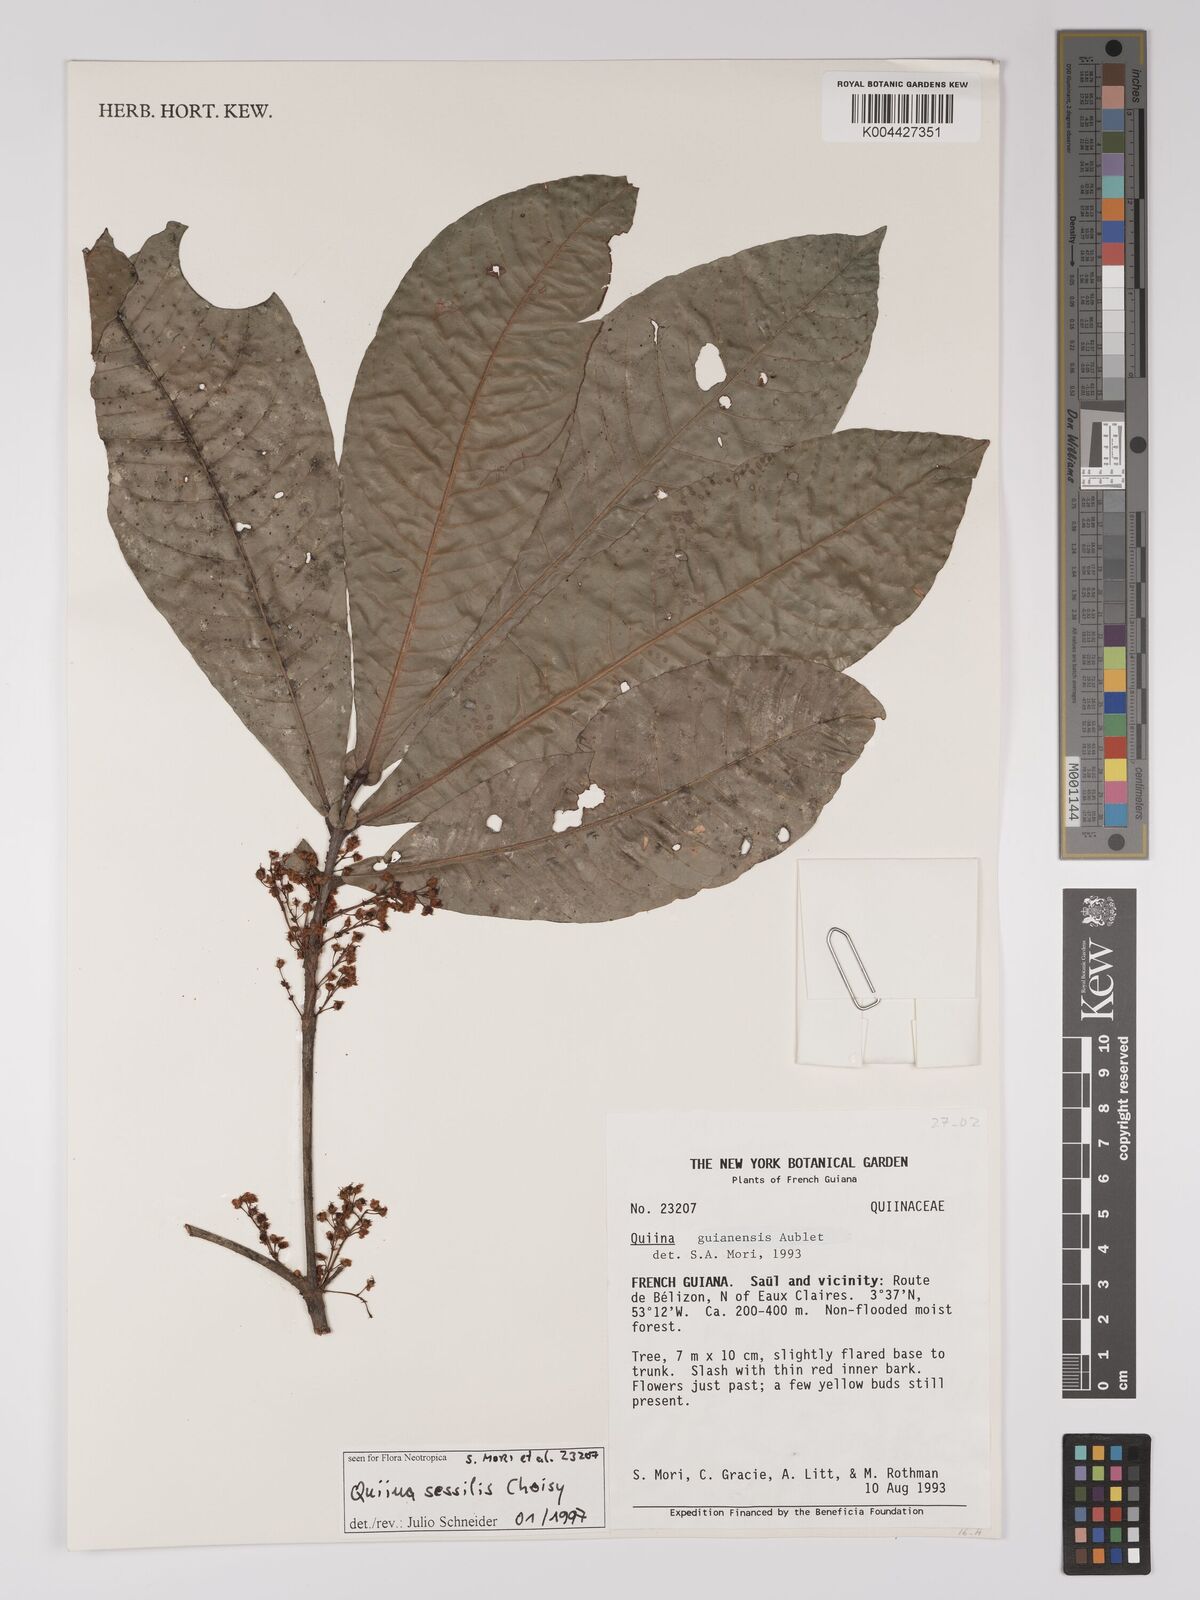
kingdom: Plantae
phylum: Tracheophyta
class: Magnoliopsida
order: Malpighiales
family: Quiinaceae
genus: Quiina
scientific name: Quiina sessilis
